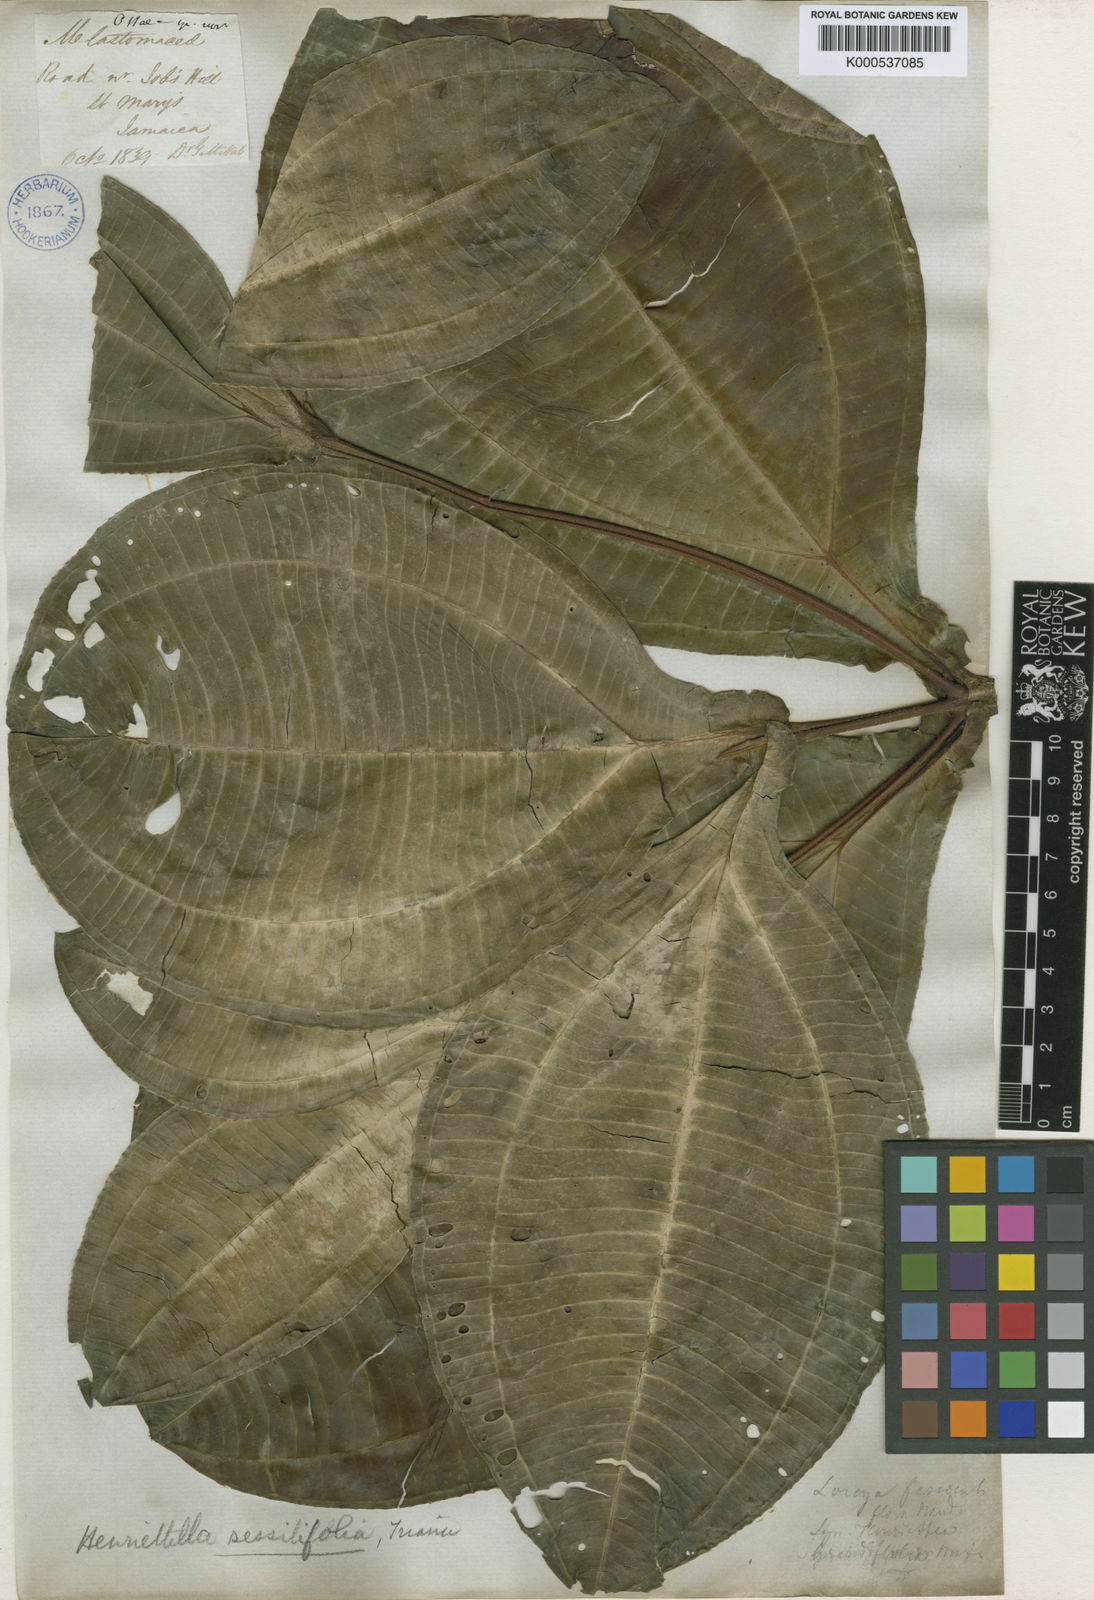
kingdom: Plantae
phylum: Tracheophyta
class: Magnoliopsida
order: Myrtales
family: Melastomataceae
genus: Henriettea
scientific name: Henriettea sessilifolia
